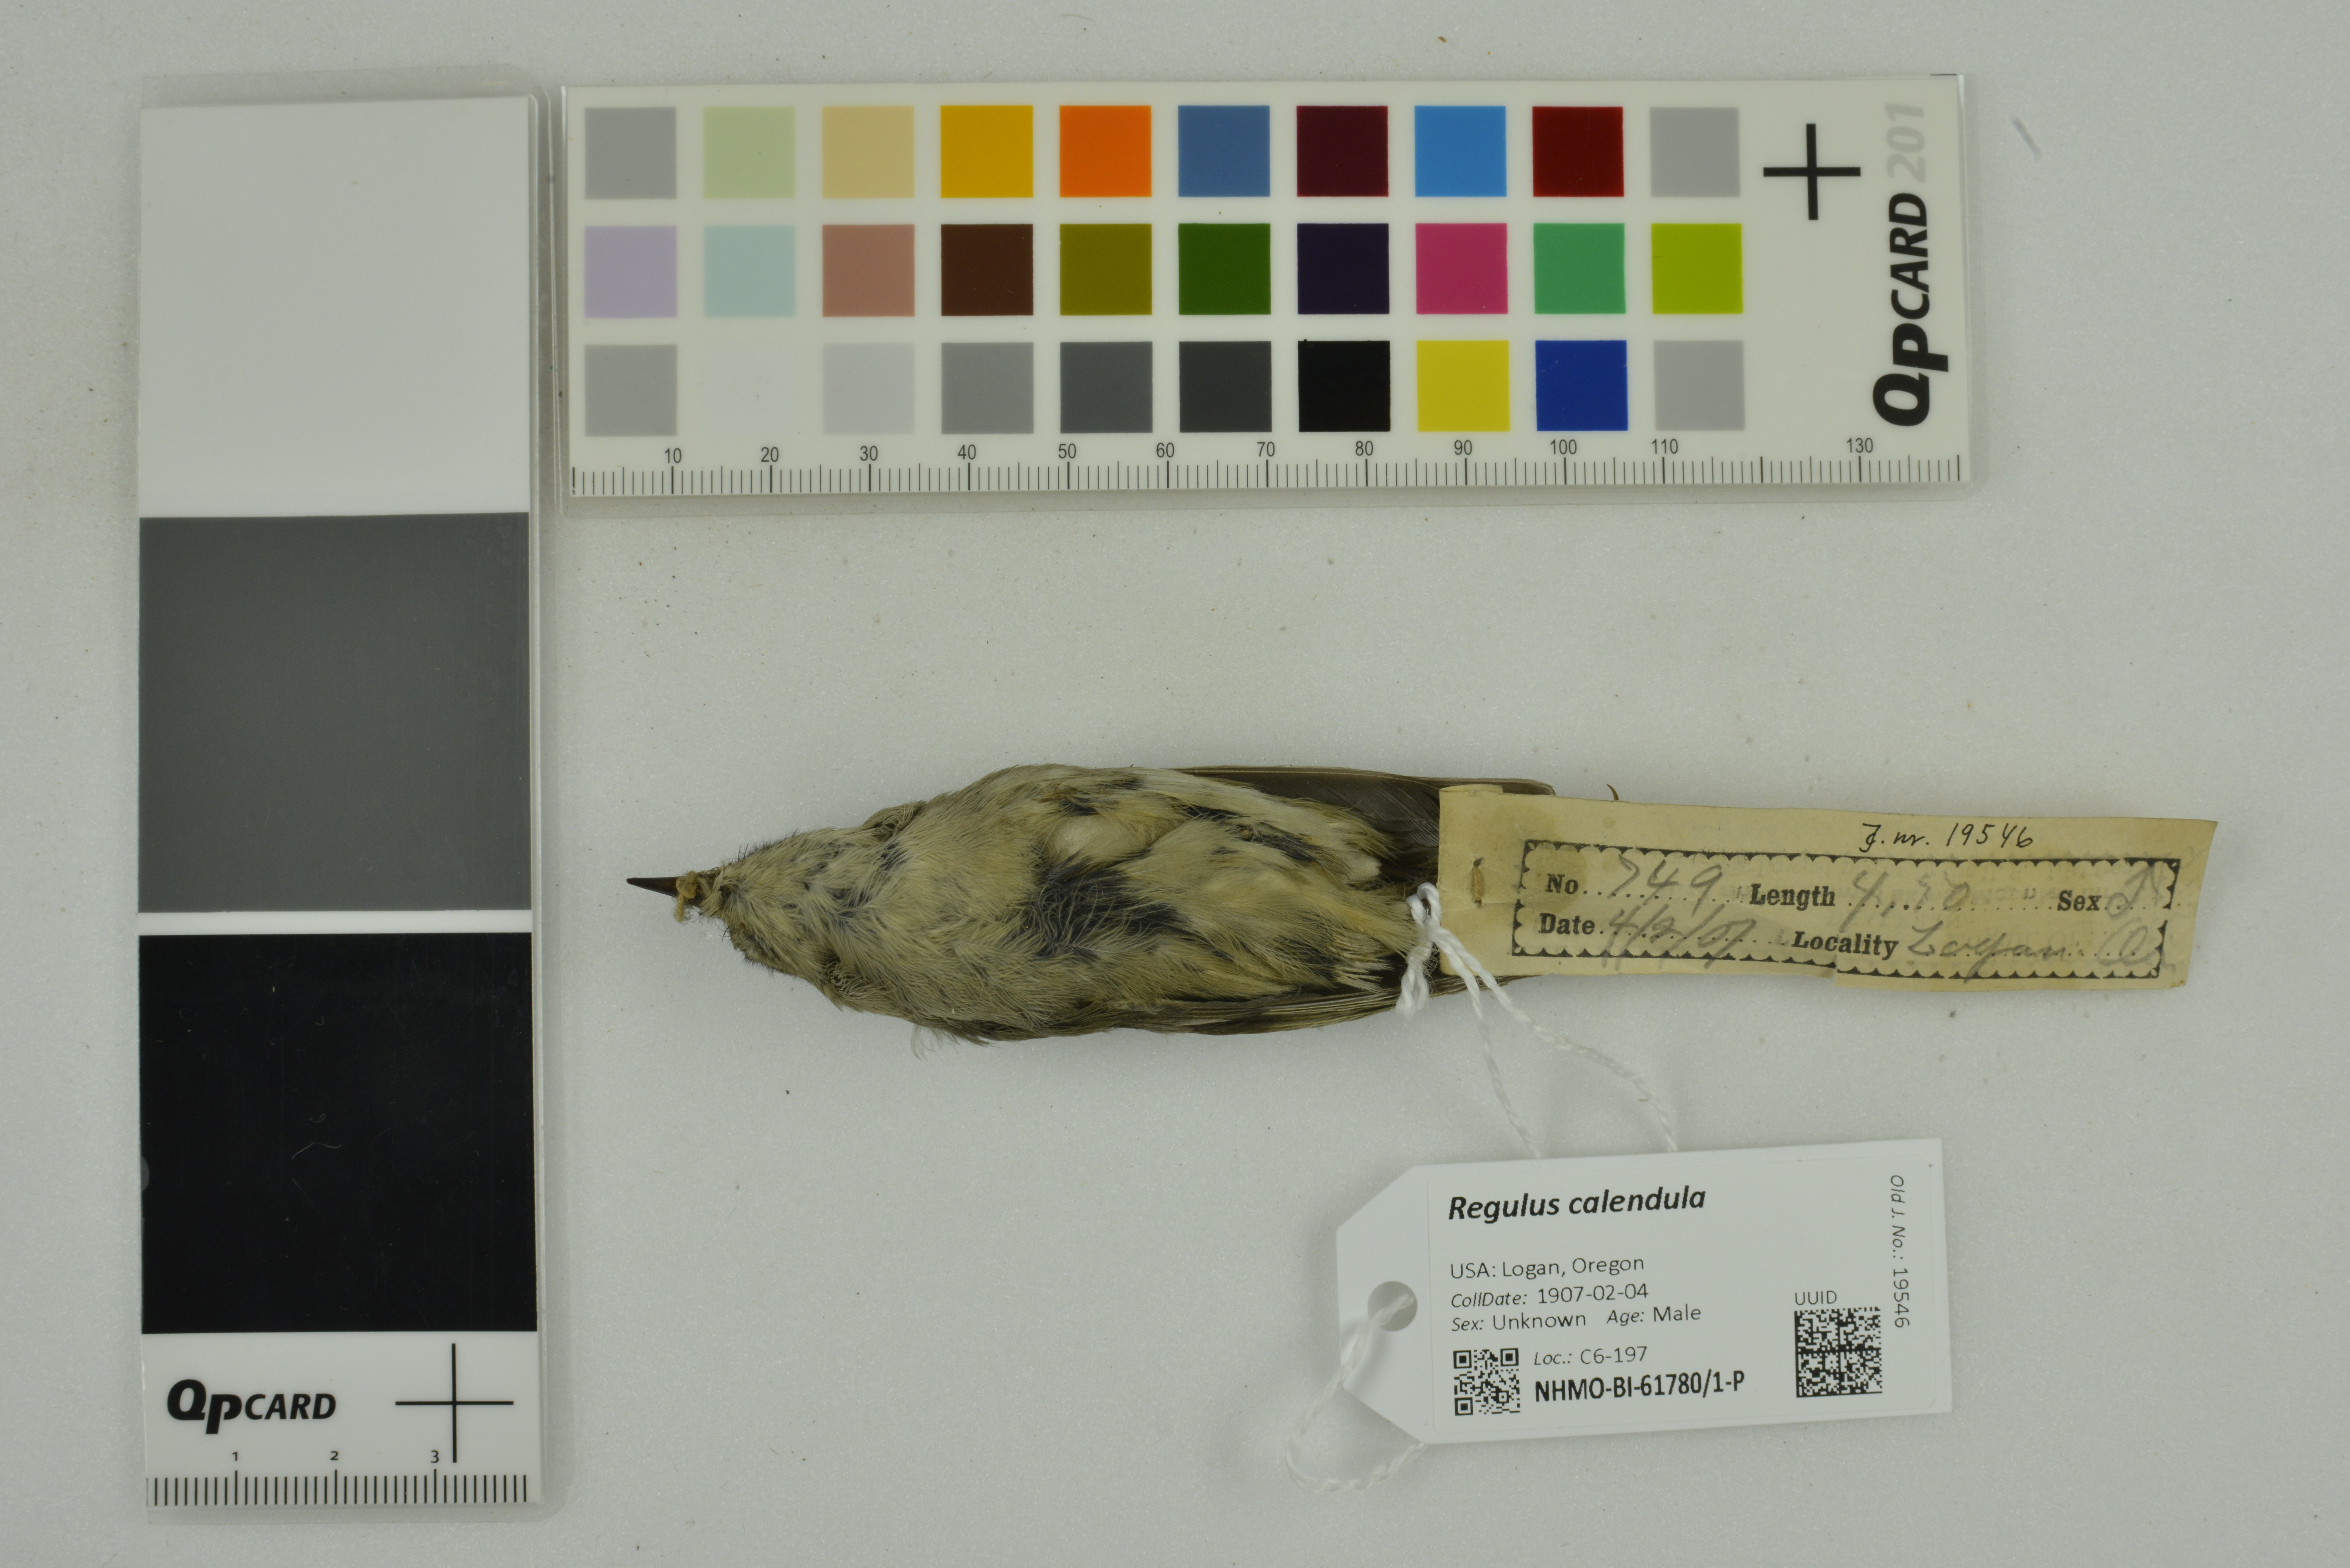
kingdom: Animalia
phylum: Chordata
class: Aves
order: Passeriformes
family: Regulidae
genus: Regulus
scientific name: Regulus calendula
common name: Ruby-crowned kinglet
